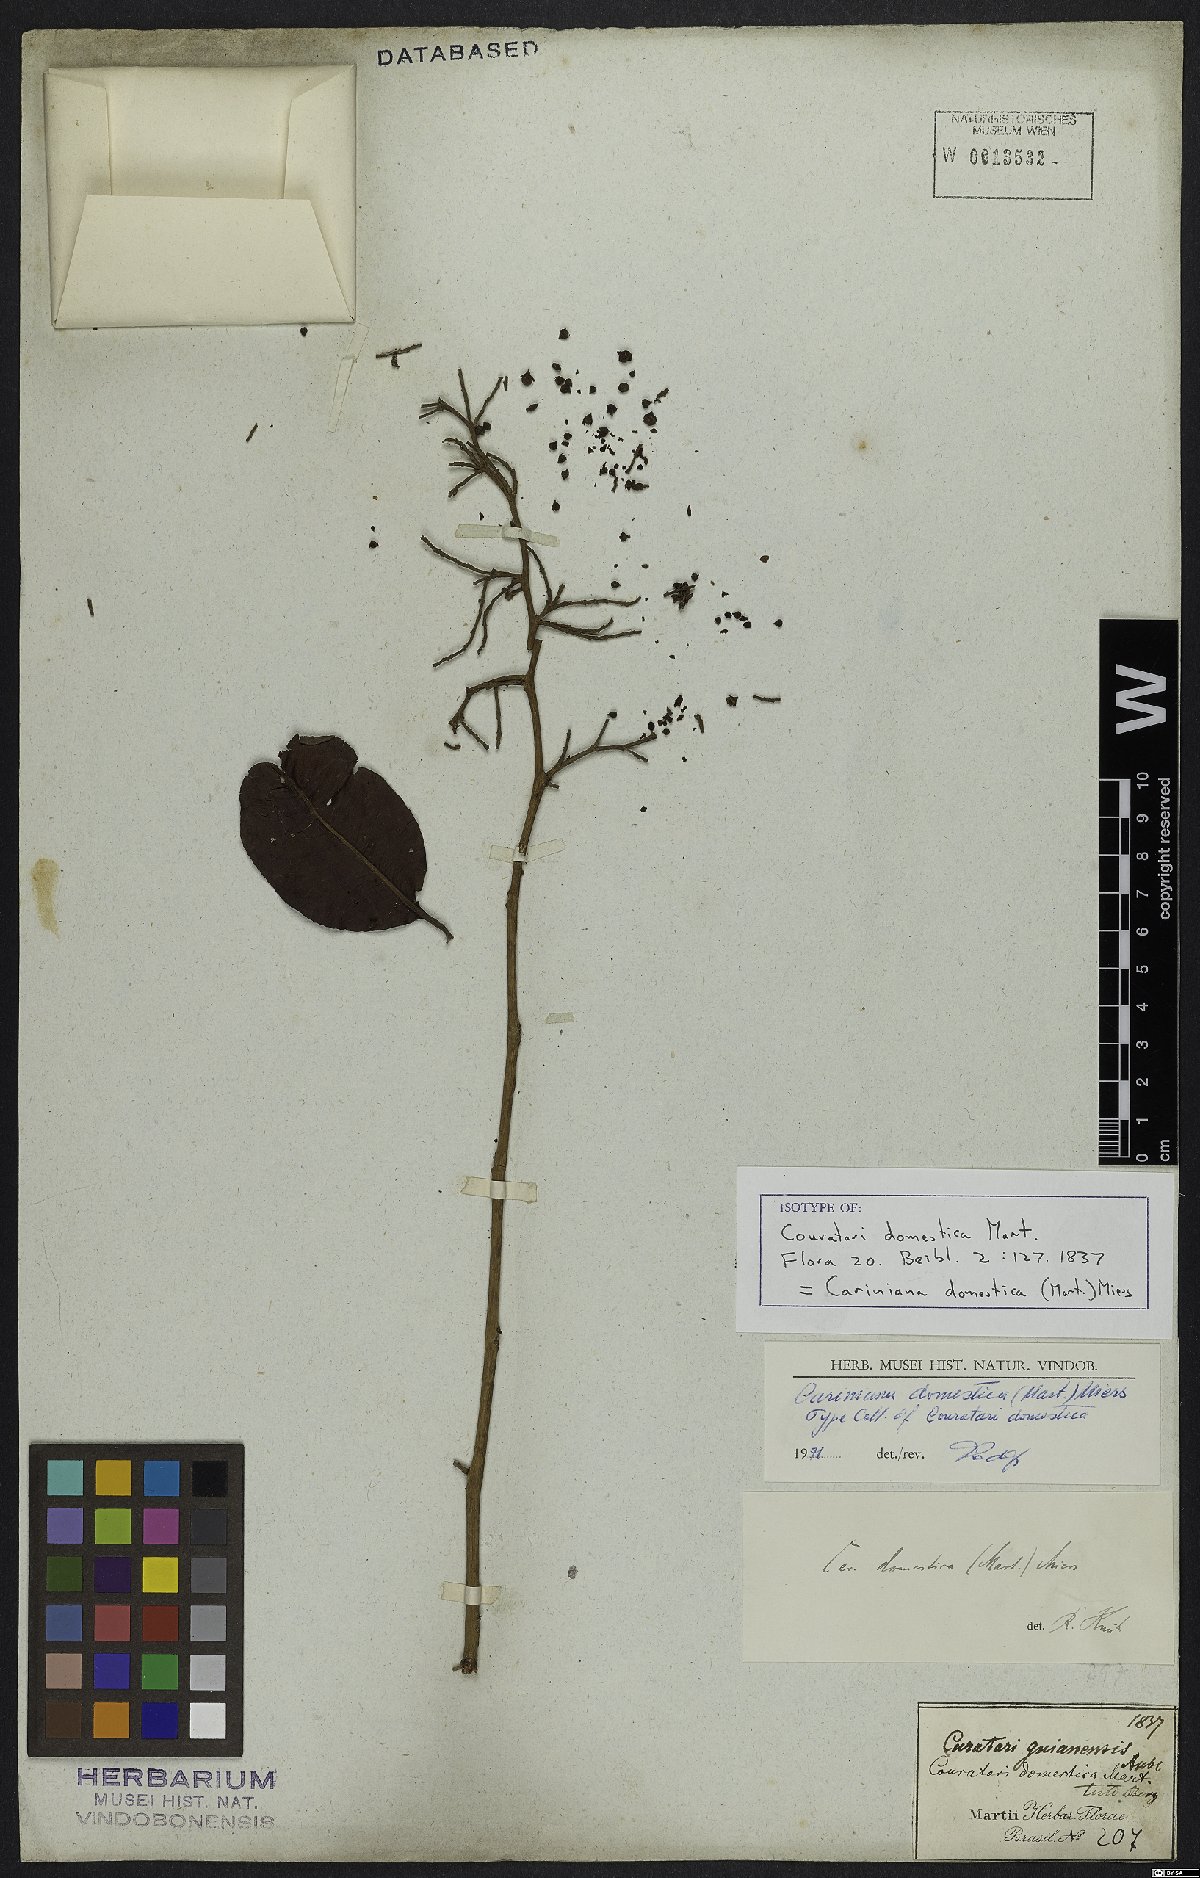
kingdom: Plantae
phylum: Tracheophyta
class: Magnoliopsida
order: Ericales
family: Lecythidaceae
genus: Cariniana
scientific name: Cariniana domestica
